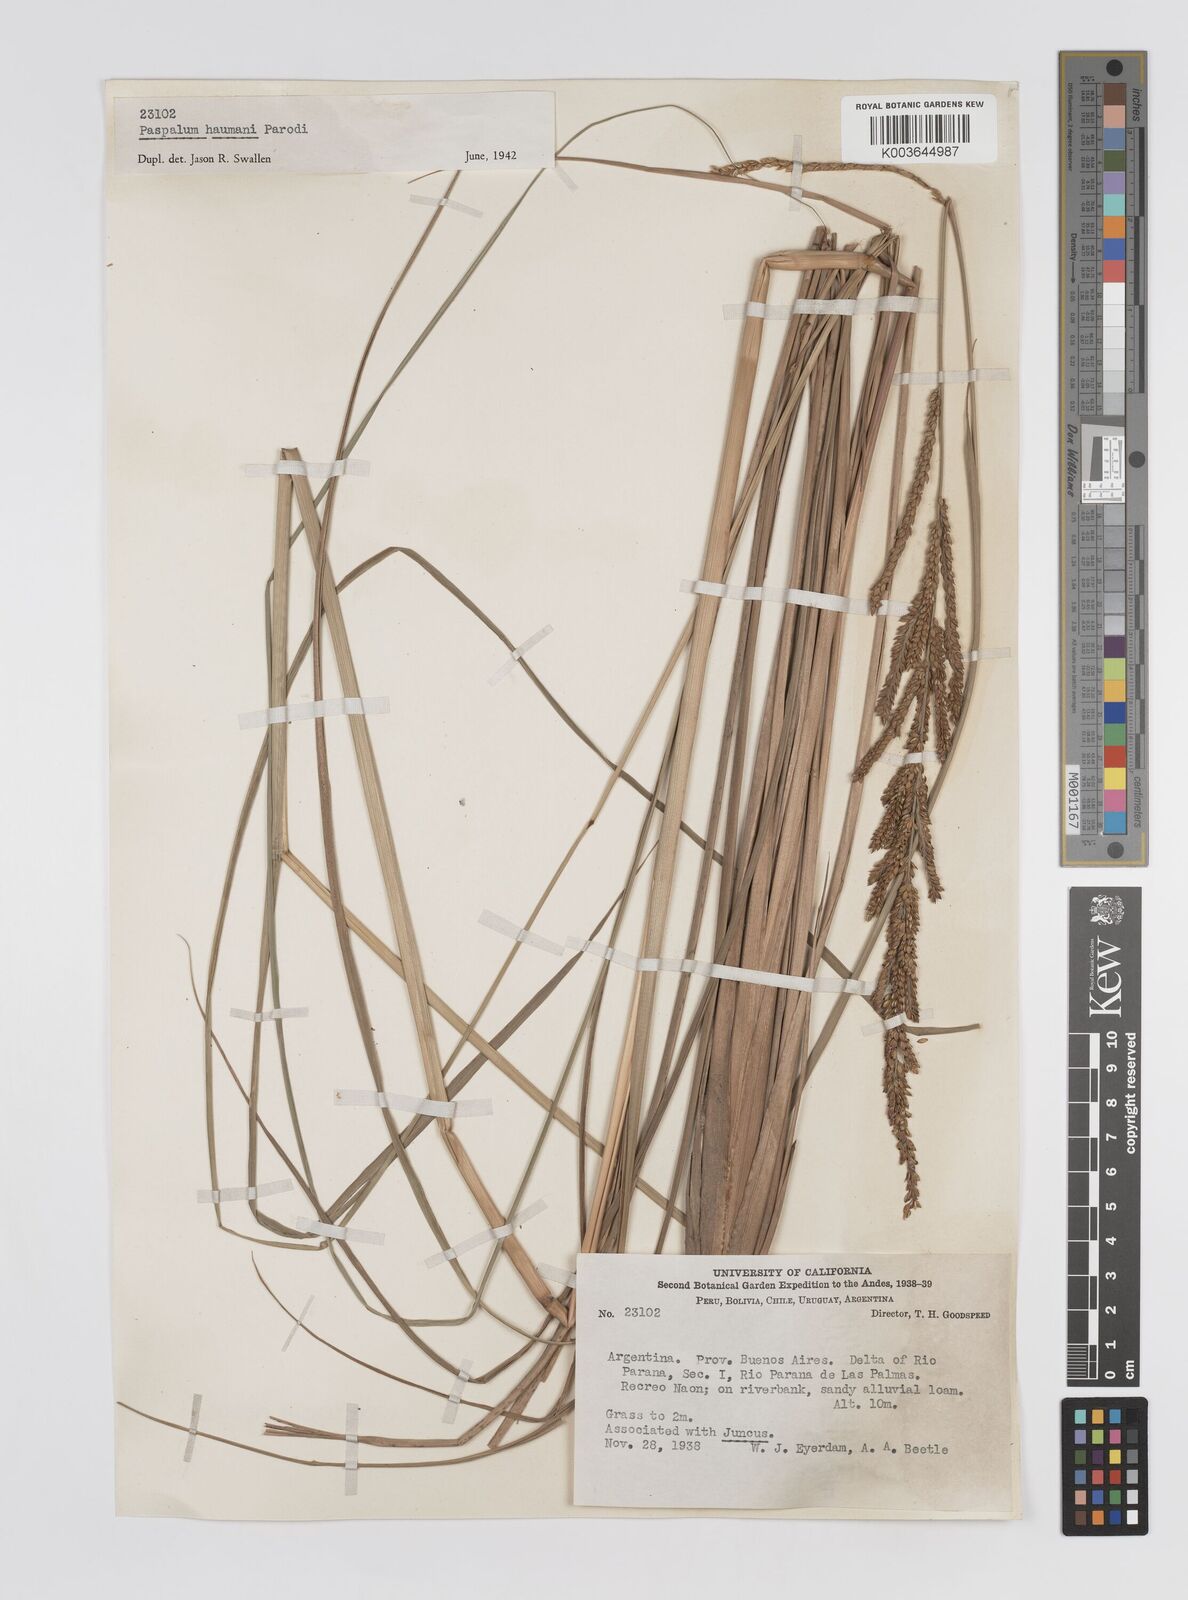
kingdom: Plantae
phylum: Tracheophyta
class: Liliopsida
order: Poales
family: Poaceae
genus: Paspalum
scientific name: Paspalum quadrifarium
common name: Tussock paspalum
